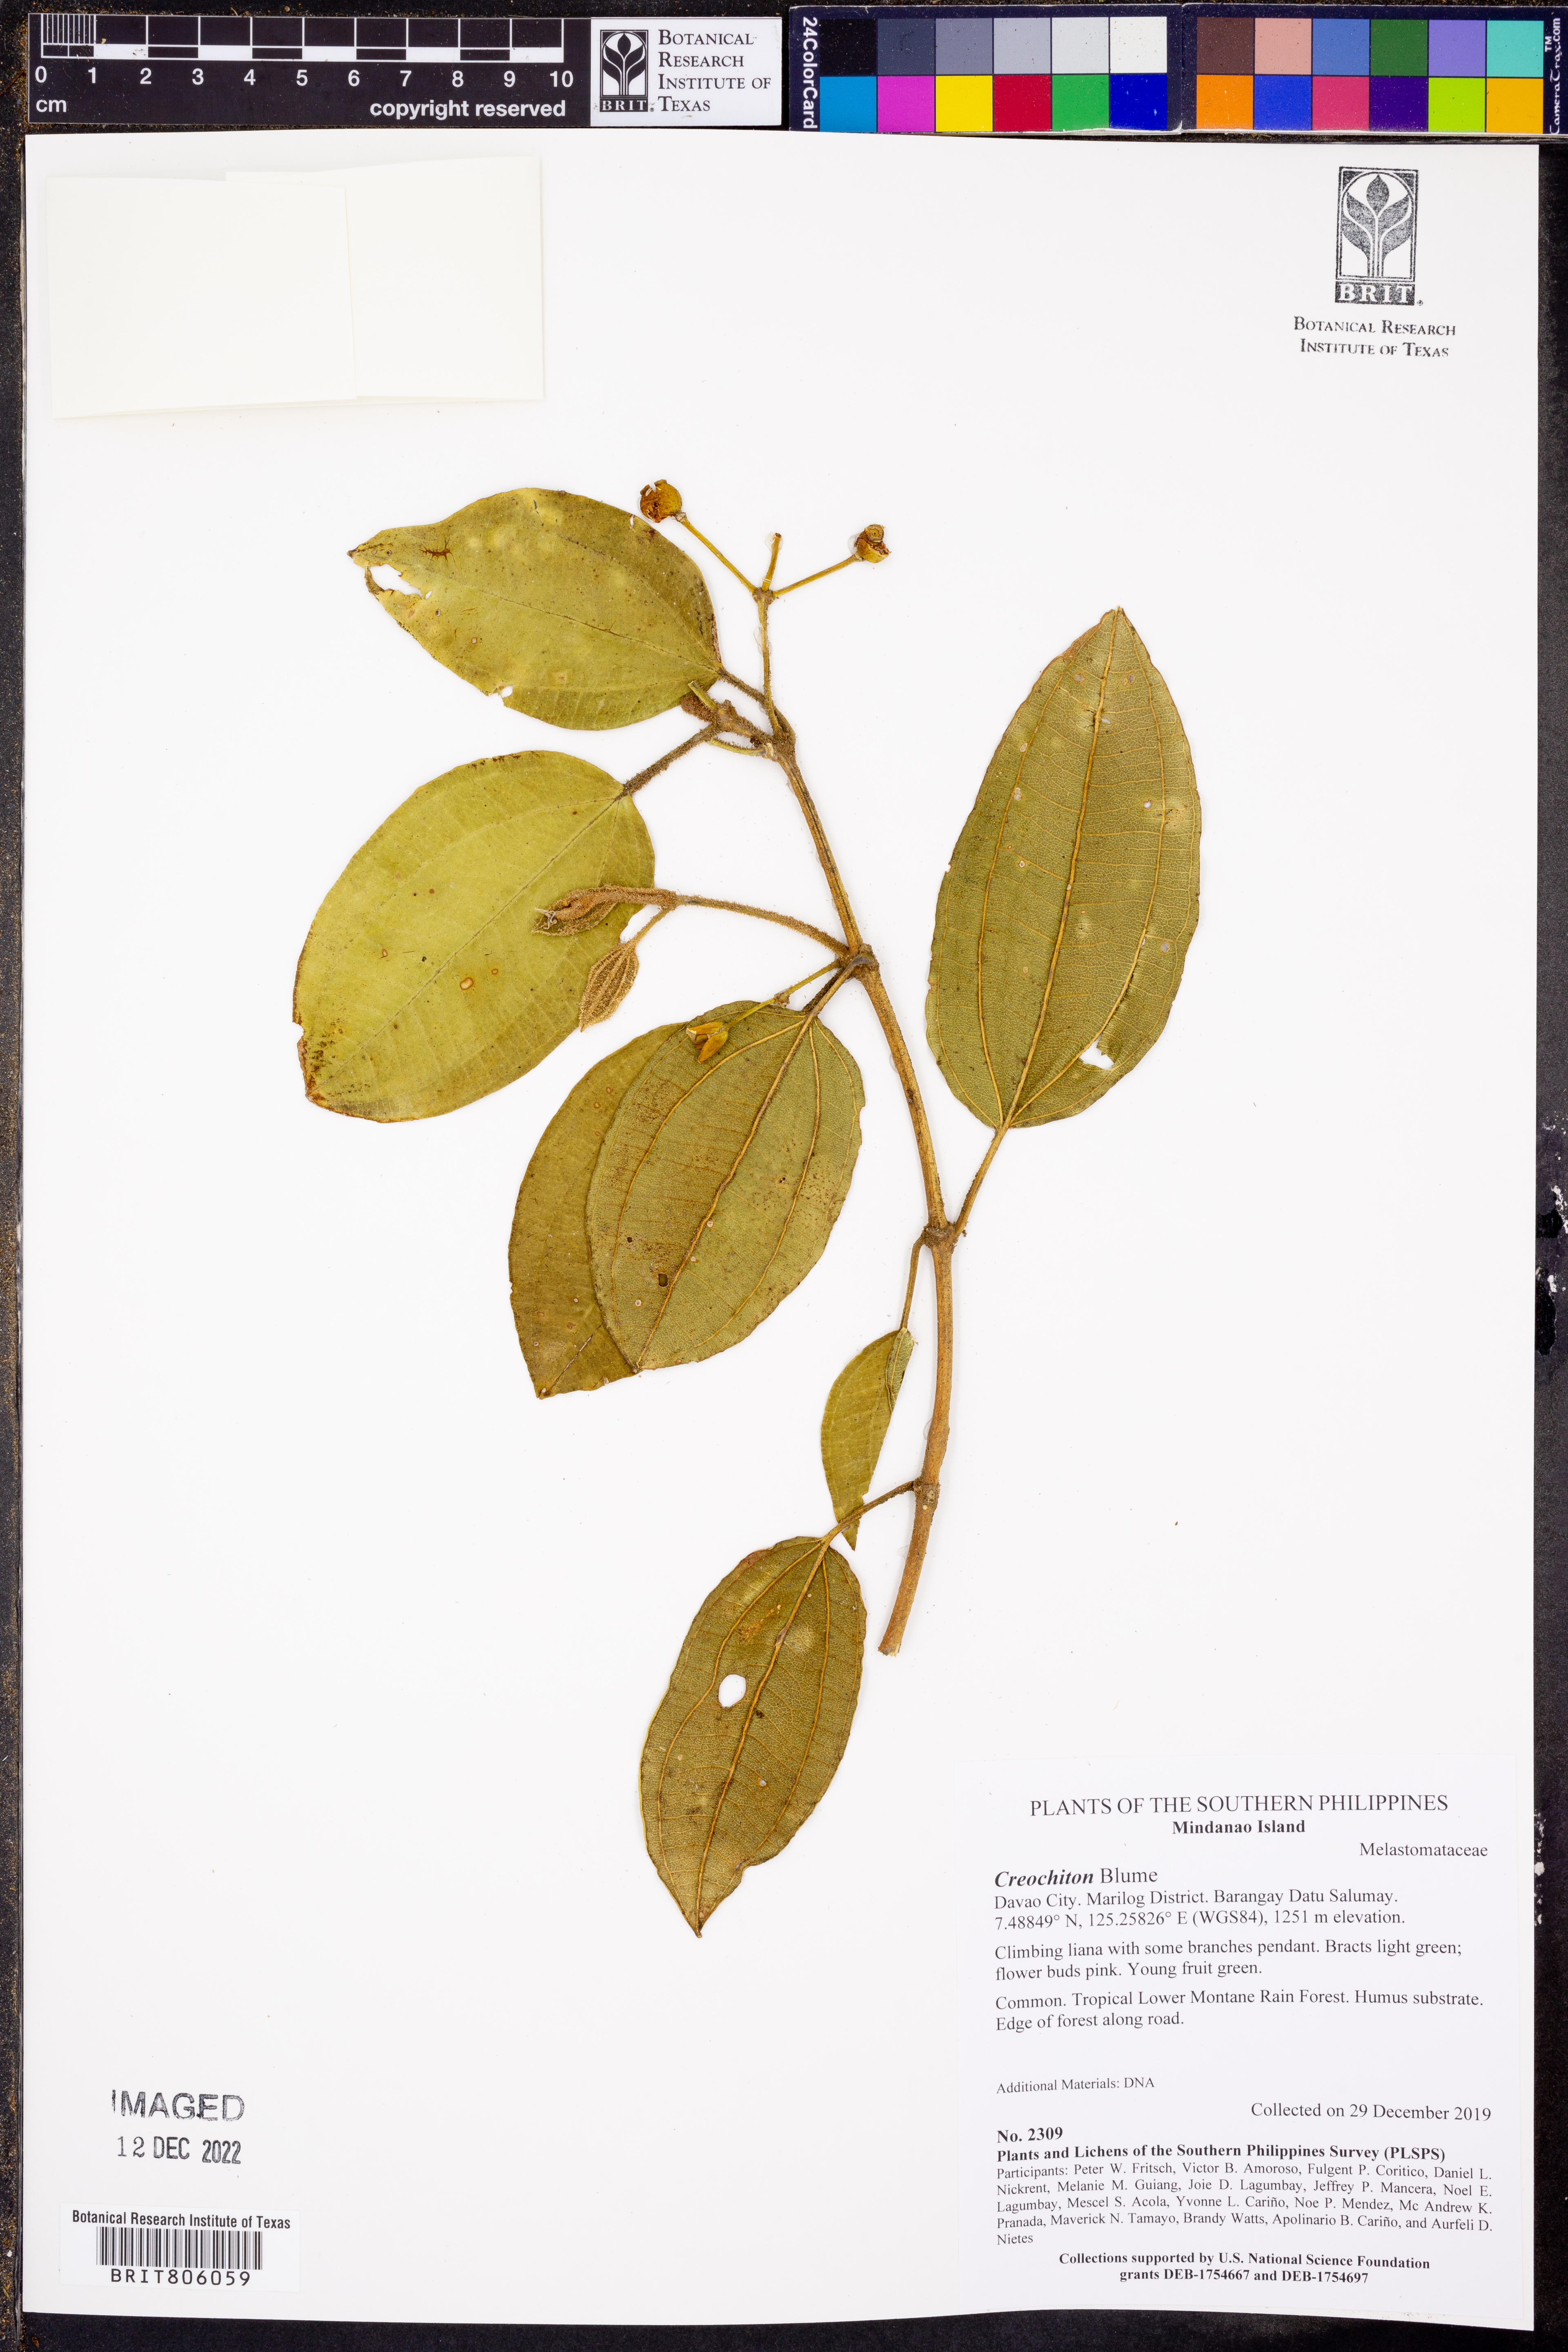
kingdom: Plantae
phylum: Tracheophyta
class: Magnoliopsida
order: Myrtales
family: Melastomataceae
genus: Microlicia
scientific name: Microlicia
